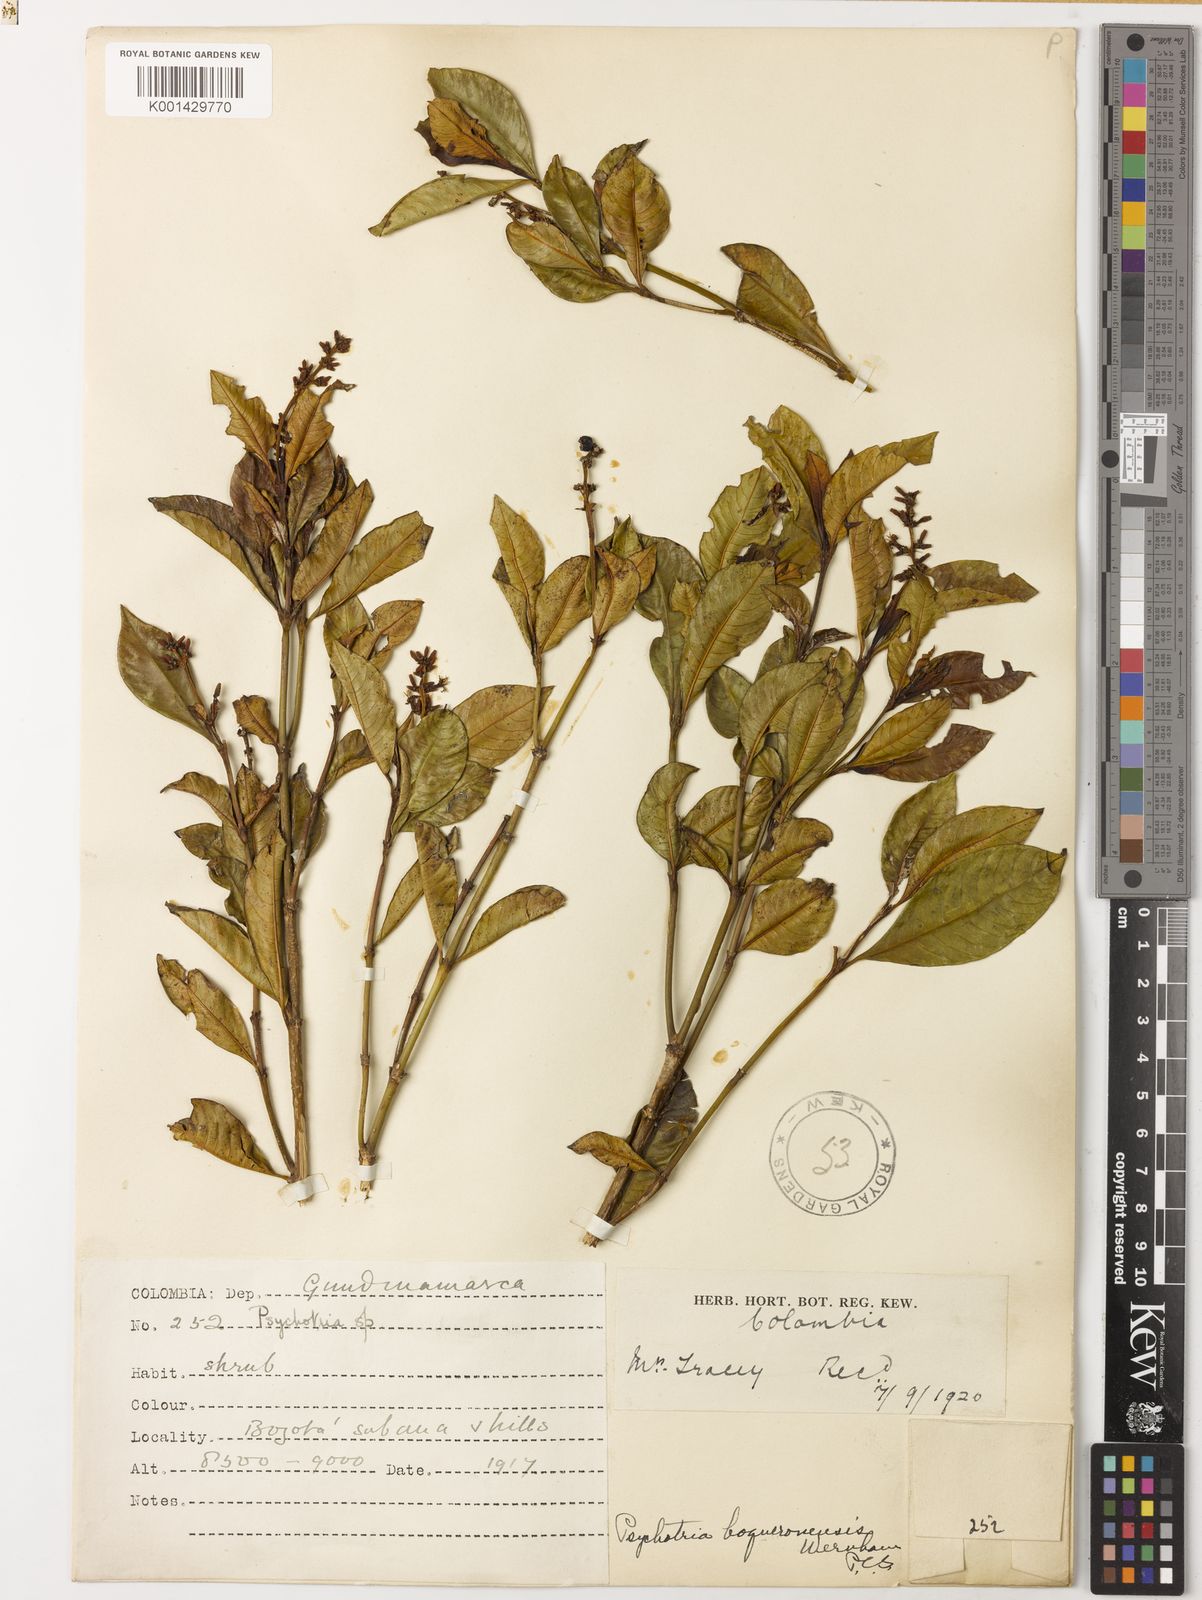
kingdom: Plantae
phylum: Tracheophyta
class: Magnoliopsida
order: Gentianales
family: Rubiaceae
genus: Palicourea
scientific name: Palicourea boqueronensis
